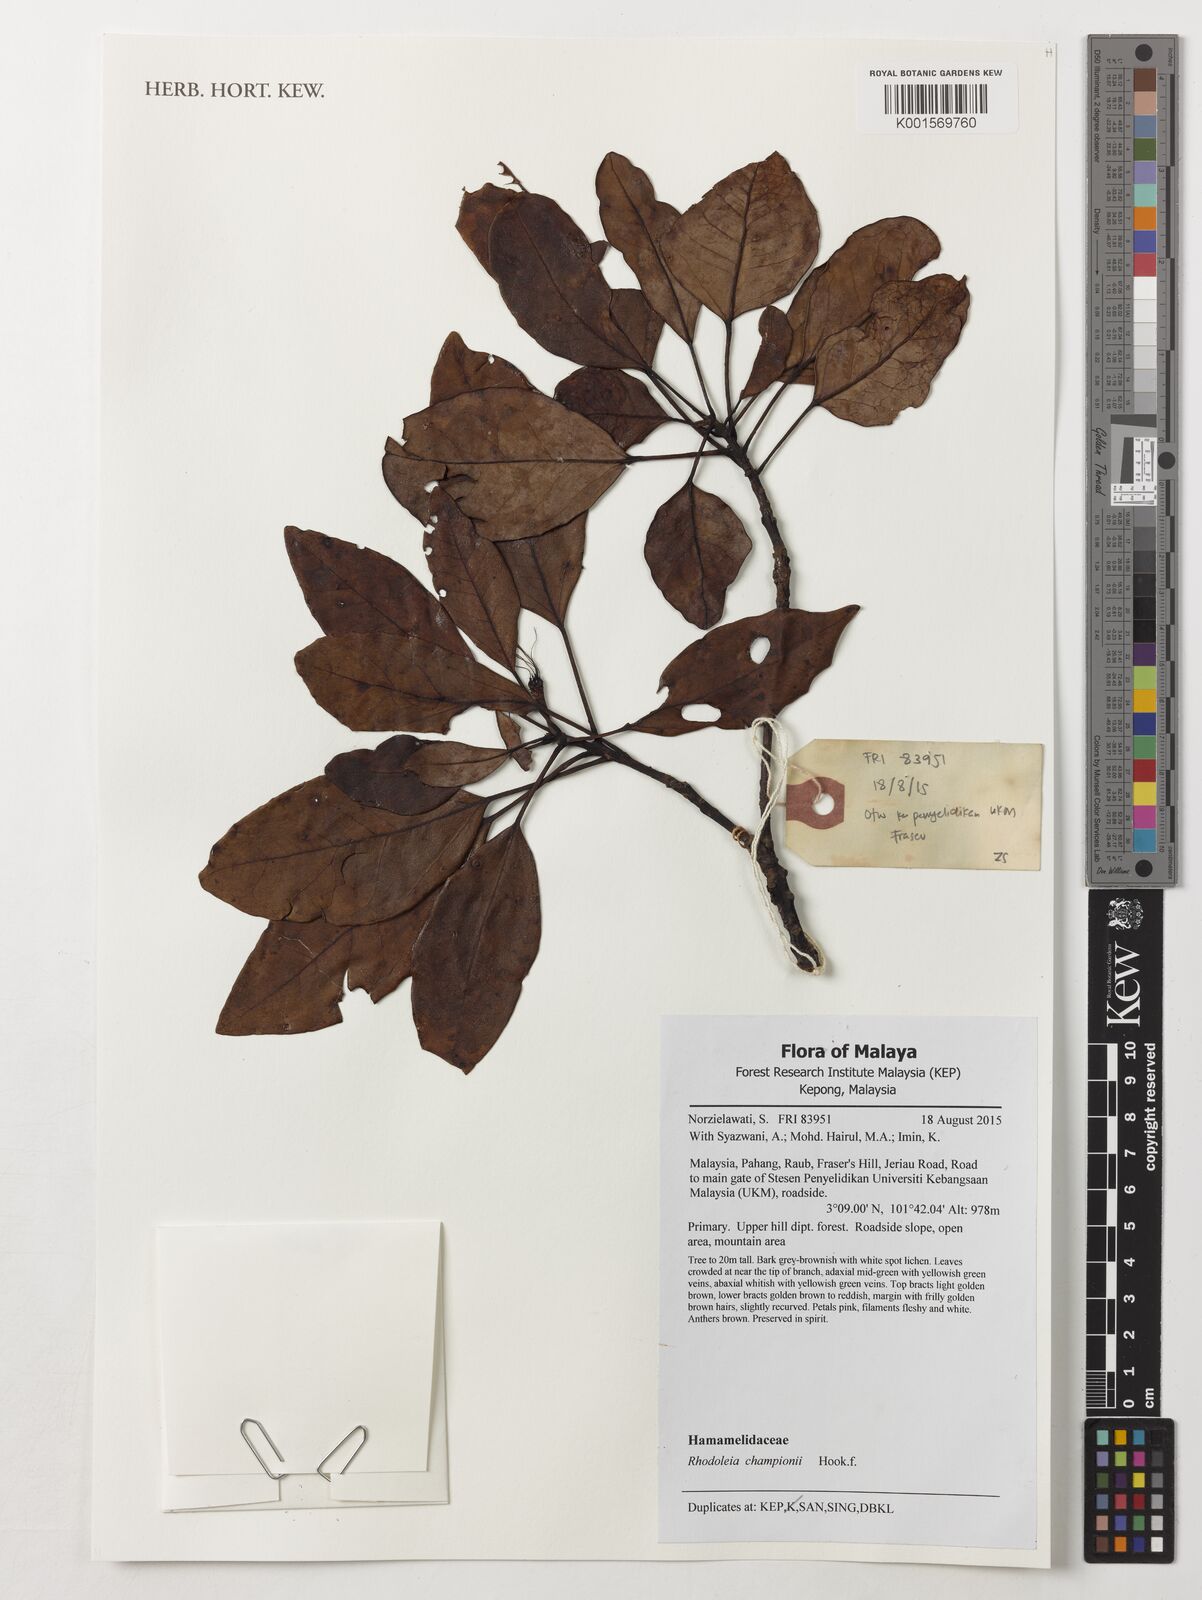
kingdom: Plantae
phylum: Tracheophyta
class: Magnoliopsida
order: Saxifragales
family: Hamamelidaceae
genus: Rhodoleia
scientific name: Rhodoleia championii
